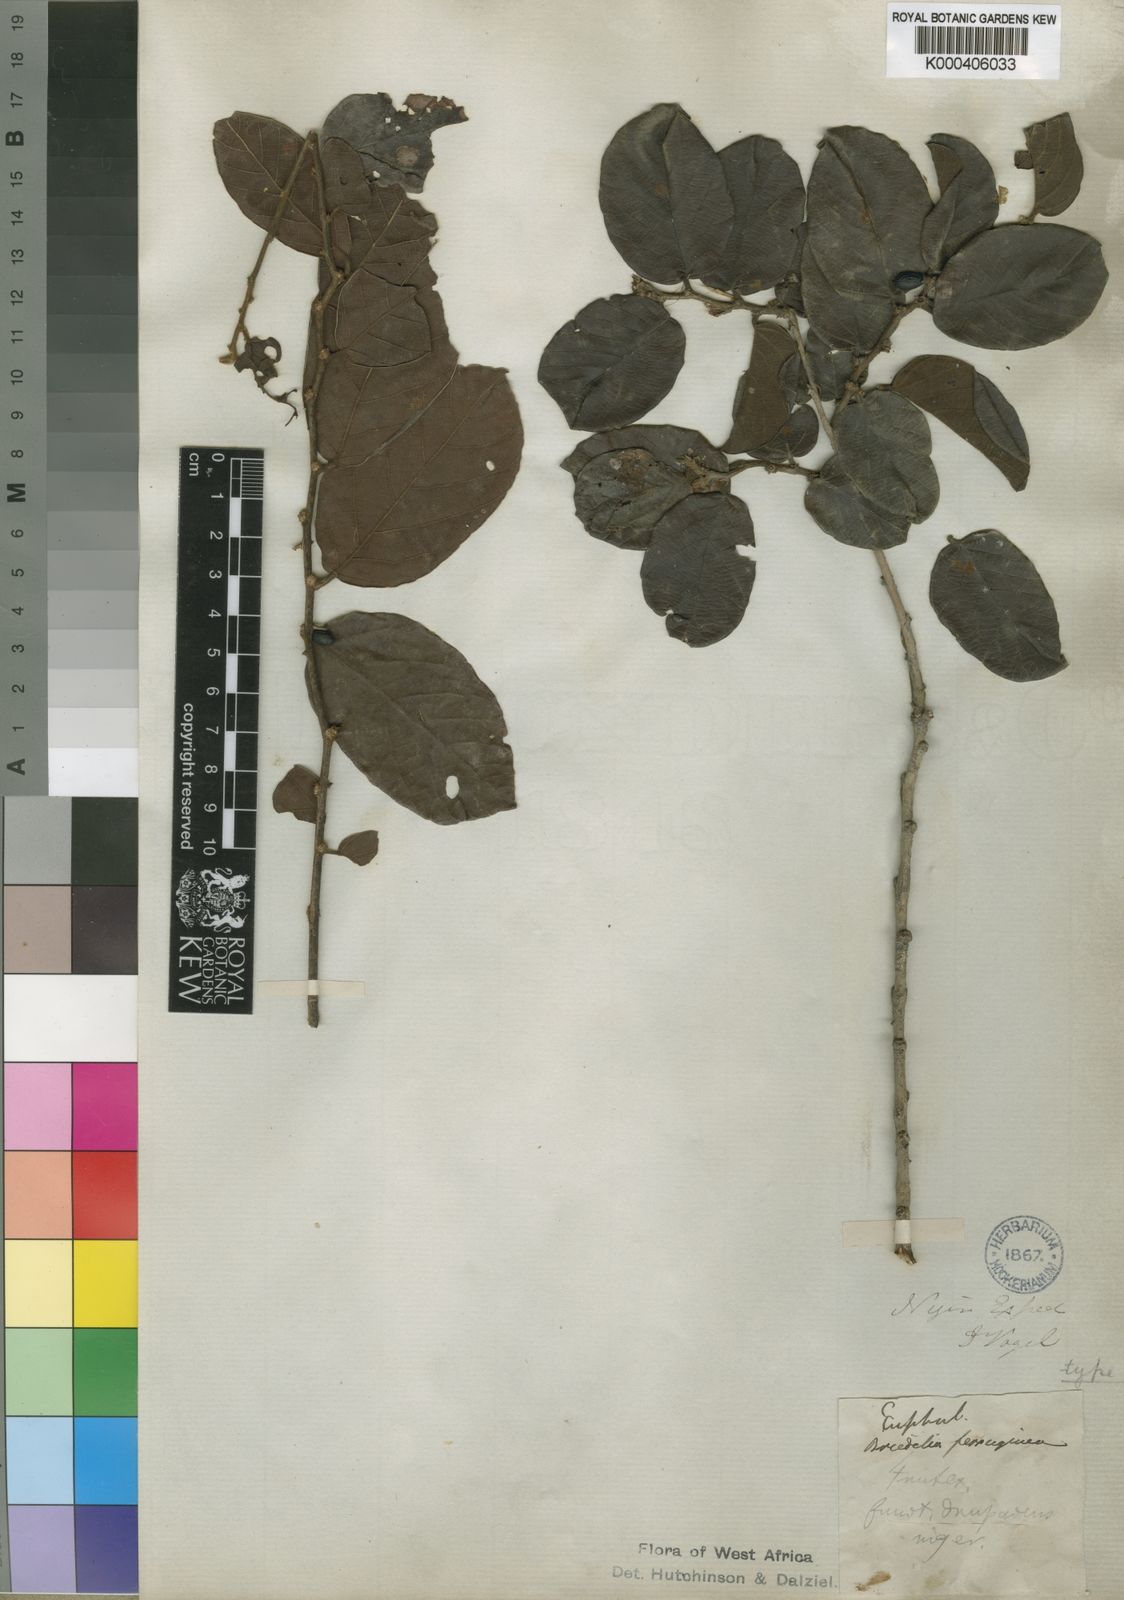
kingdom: Plantae
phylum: Tracheophyta
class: Magnoliopsida
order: Malpighiales
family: Phyllanthaceae
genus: Bridelia
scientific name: Bridelia ferruginea
